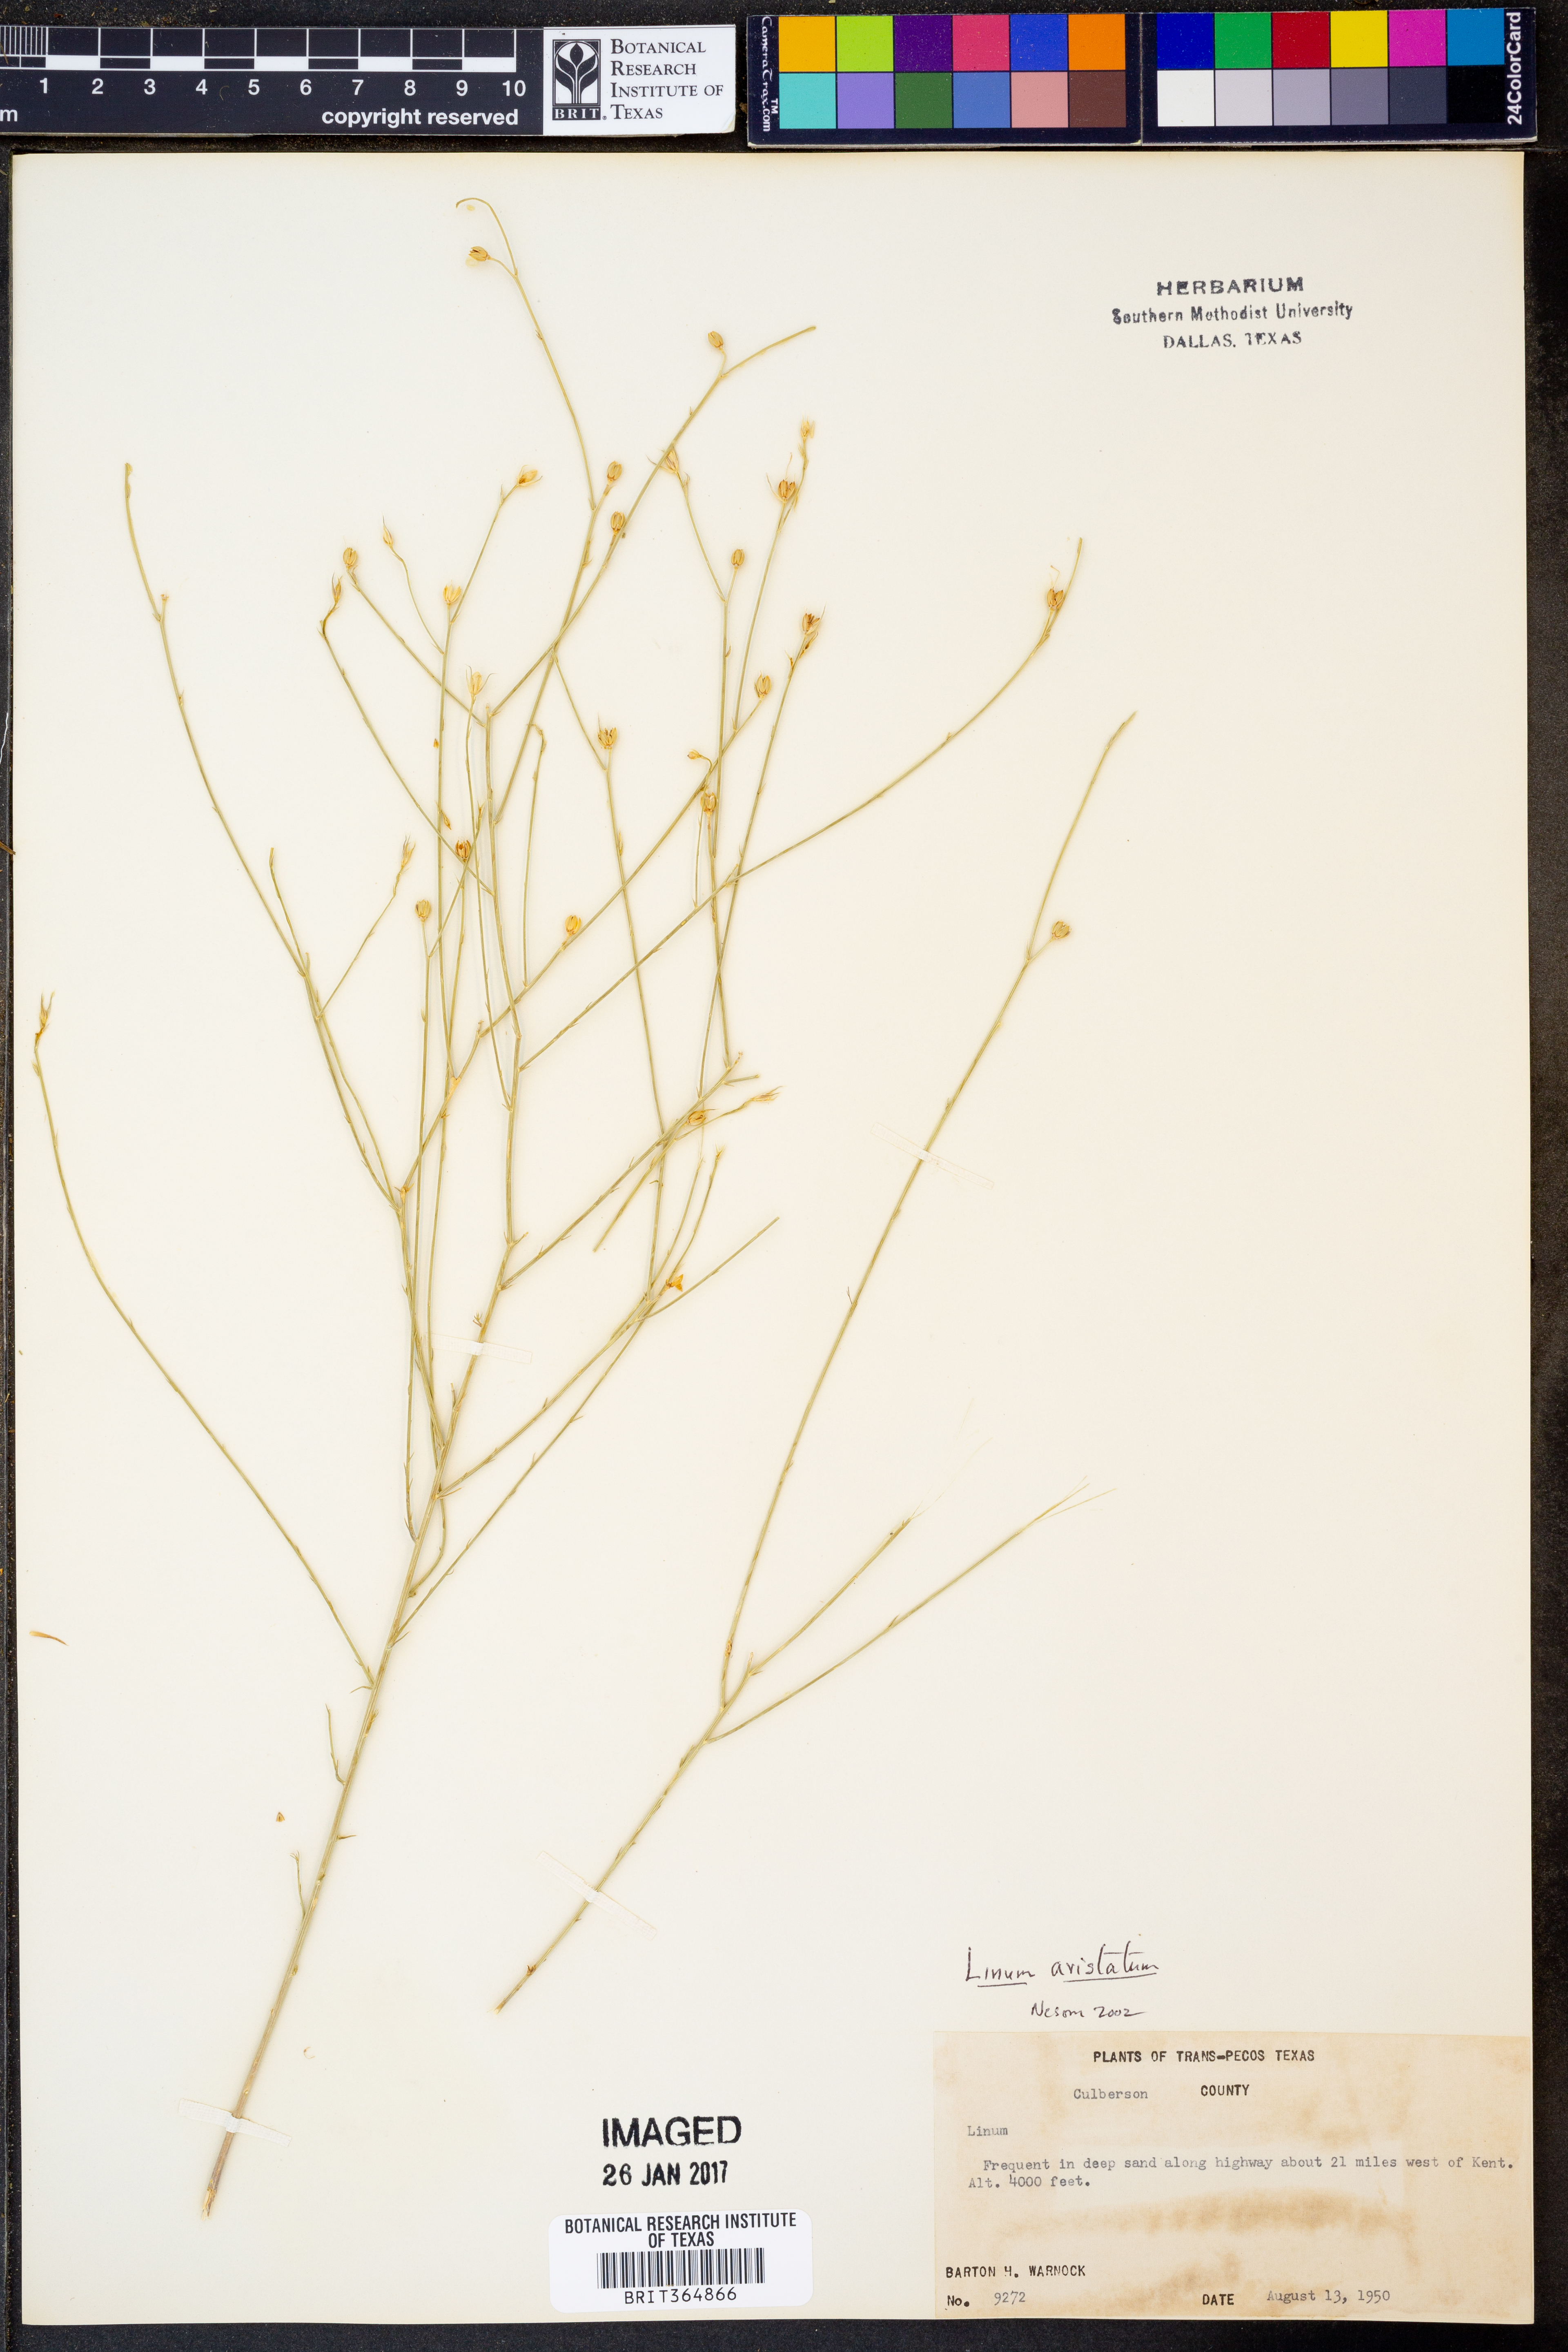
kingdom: Plantae
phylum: Tracheophyta
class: Magnoliopsida
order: Malpighiales
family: Linaceae
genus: Linum
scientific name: Linum aristatum
